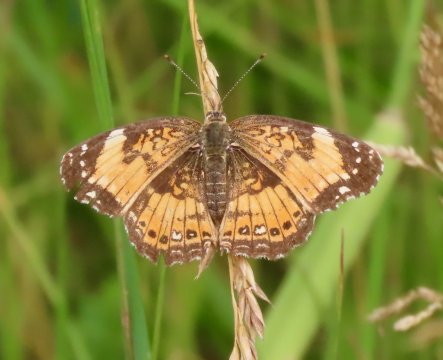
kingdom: Animalia
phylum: Arthropoda
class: Insecta
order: Lepidoptera
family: Nymphalidae
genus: Chlosyne
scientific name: Chlosyne nycteis
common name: Silvery Checkerspot
